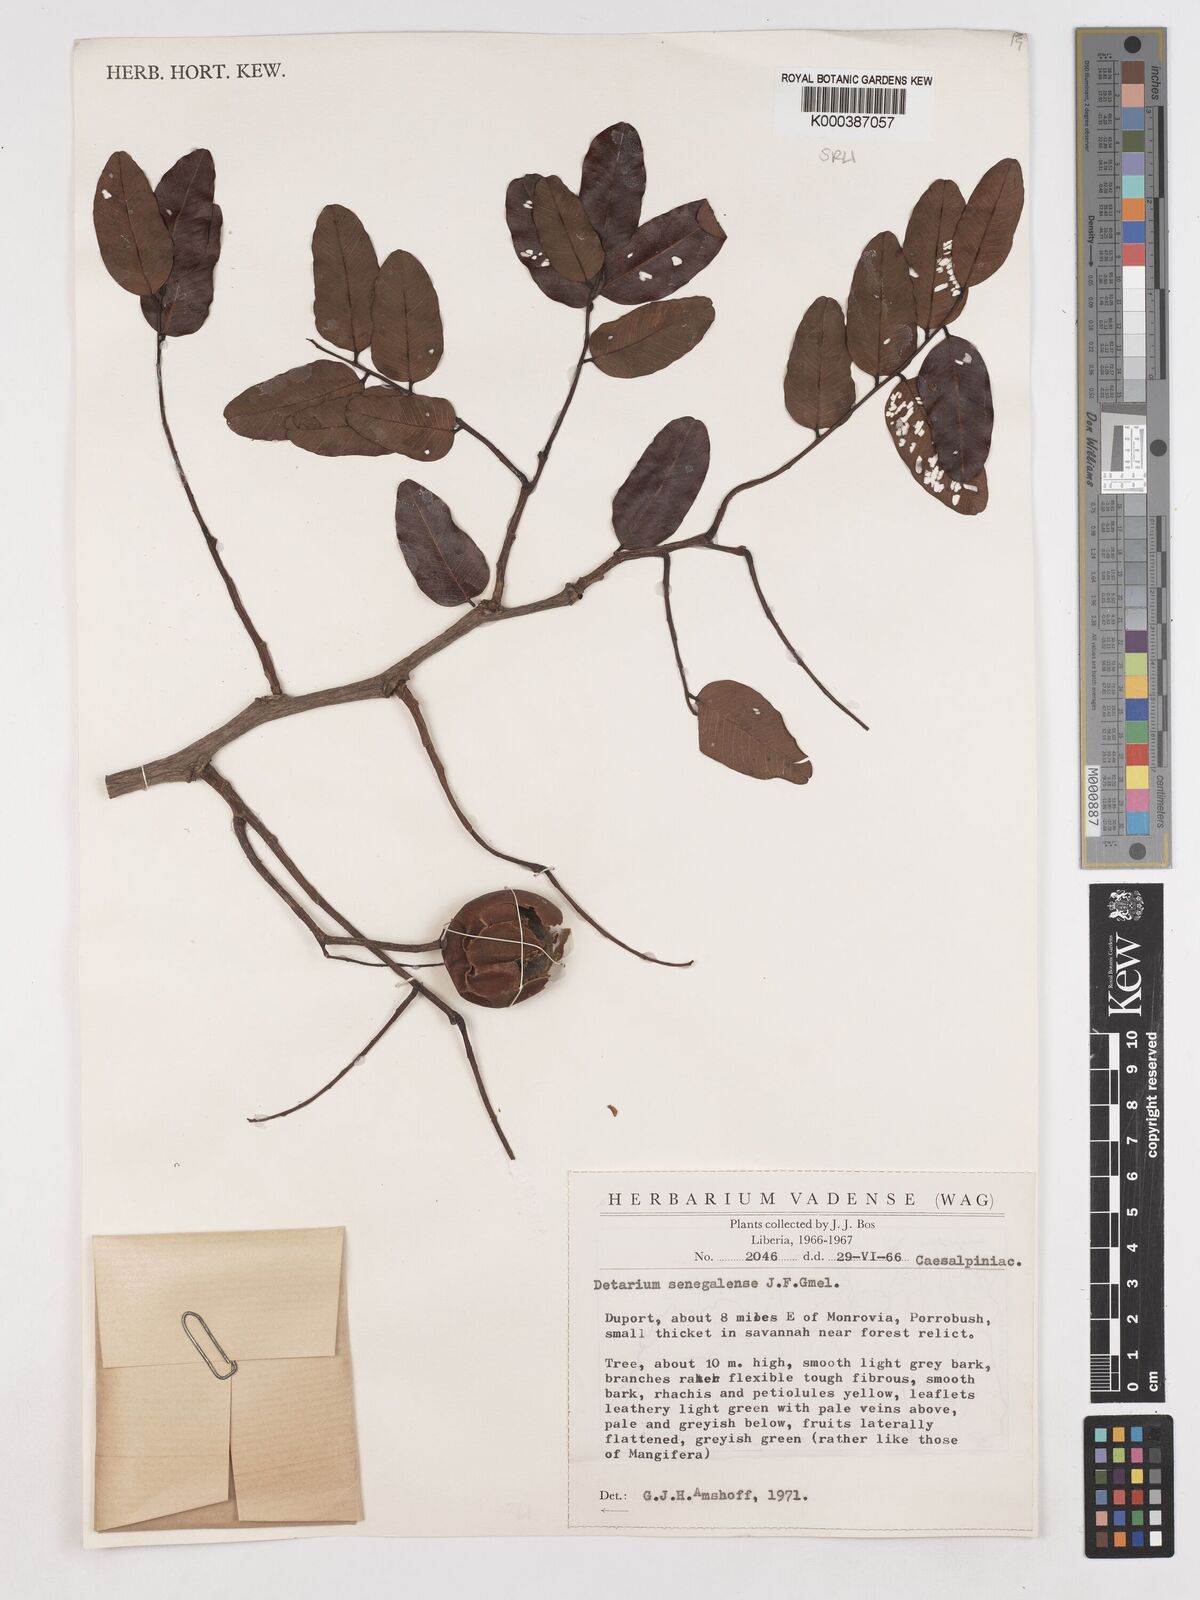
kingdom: Plantae
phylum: Tracheophyta
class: Magnoliopsida
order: Fabales
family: Fabaceae
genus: Detarium
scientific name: Detarium microcarpum
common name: Sweet dattock
